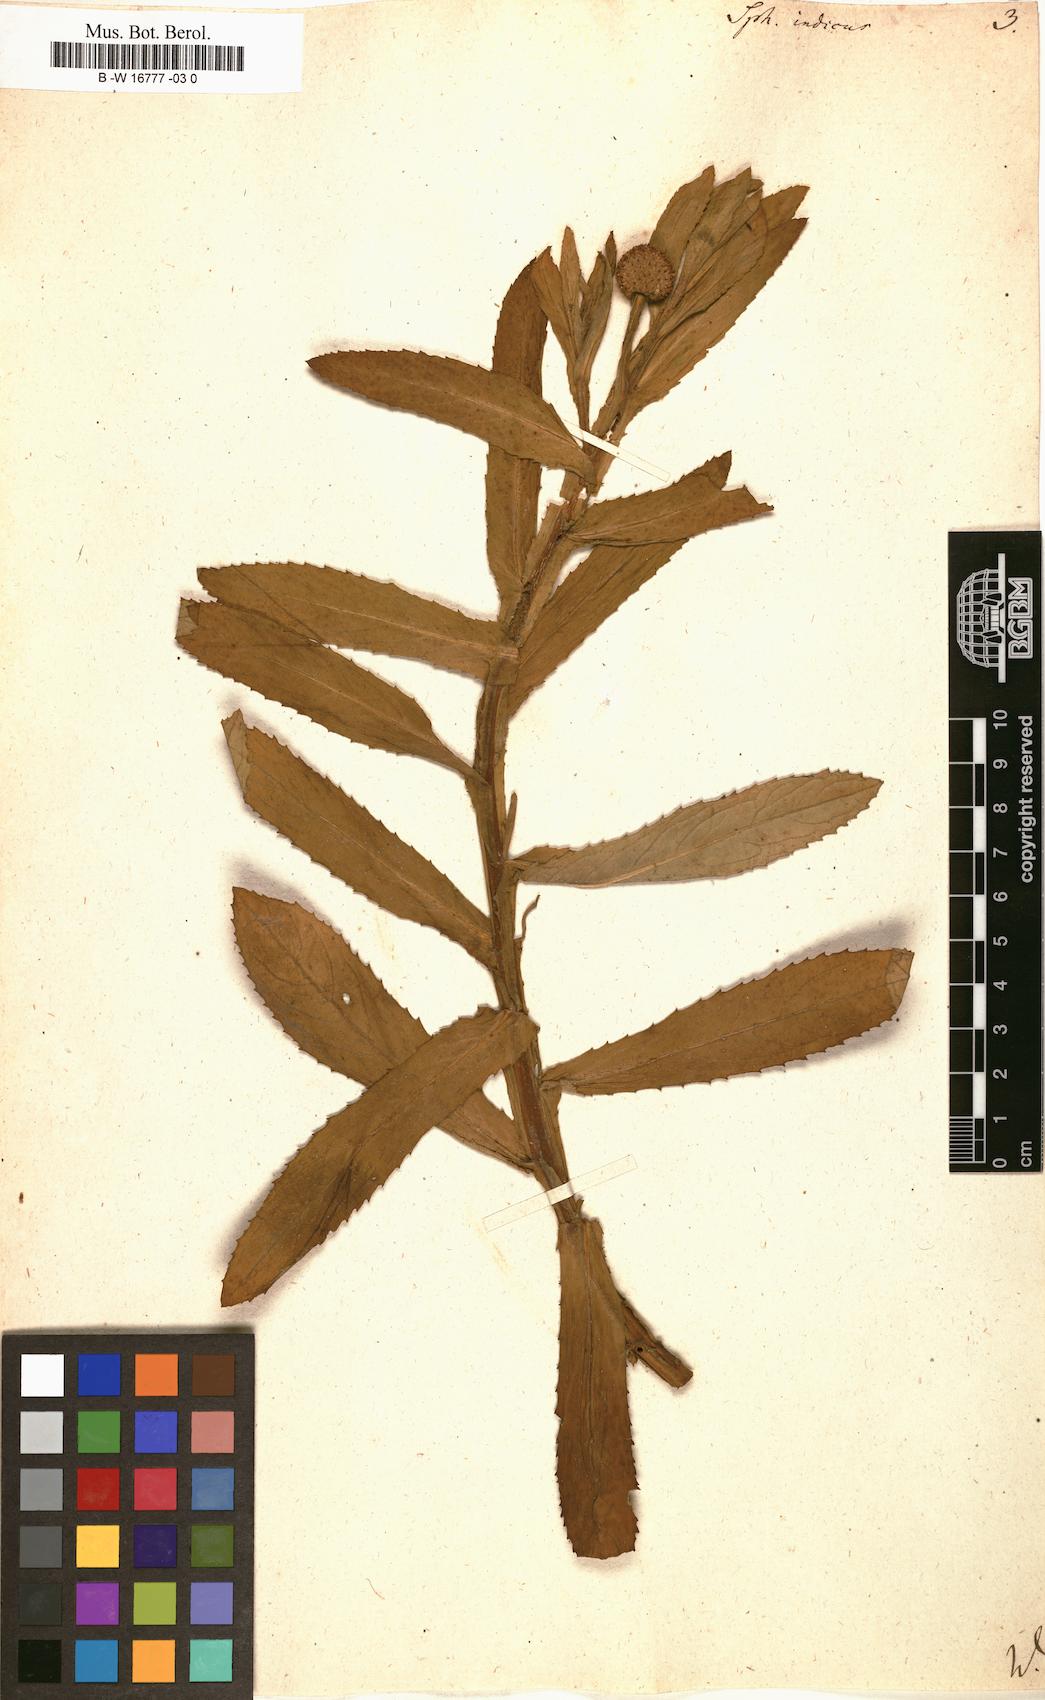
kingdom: Plantae
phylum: Tracheophyta
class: Magnoliopsida
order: Asterales
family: Asteraceae
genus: Sphaeranthus
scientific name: Sphaeranthus indicus
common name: East indian globe thistle
